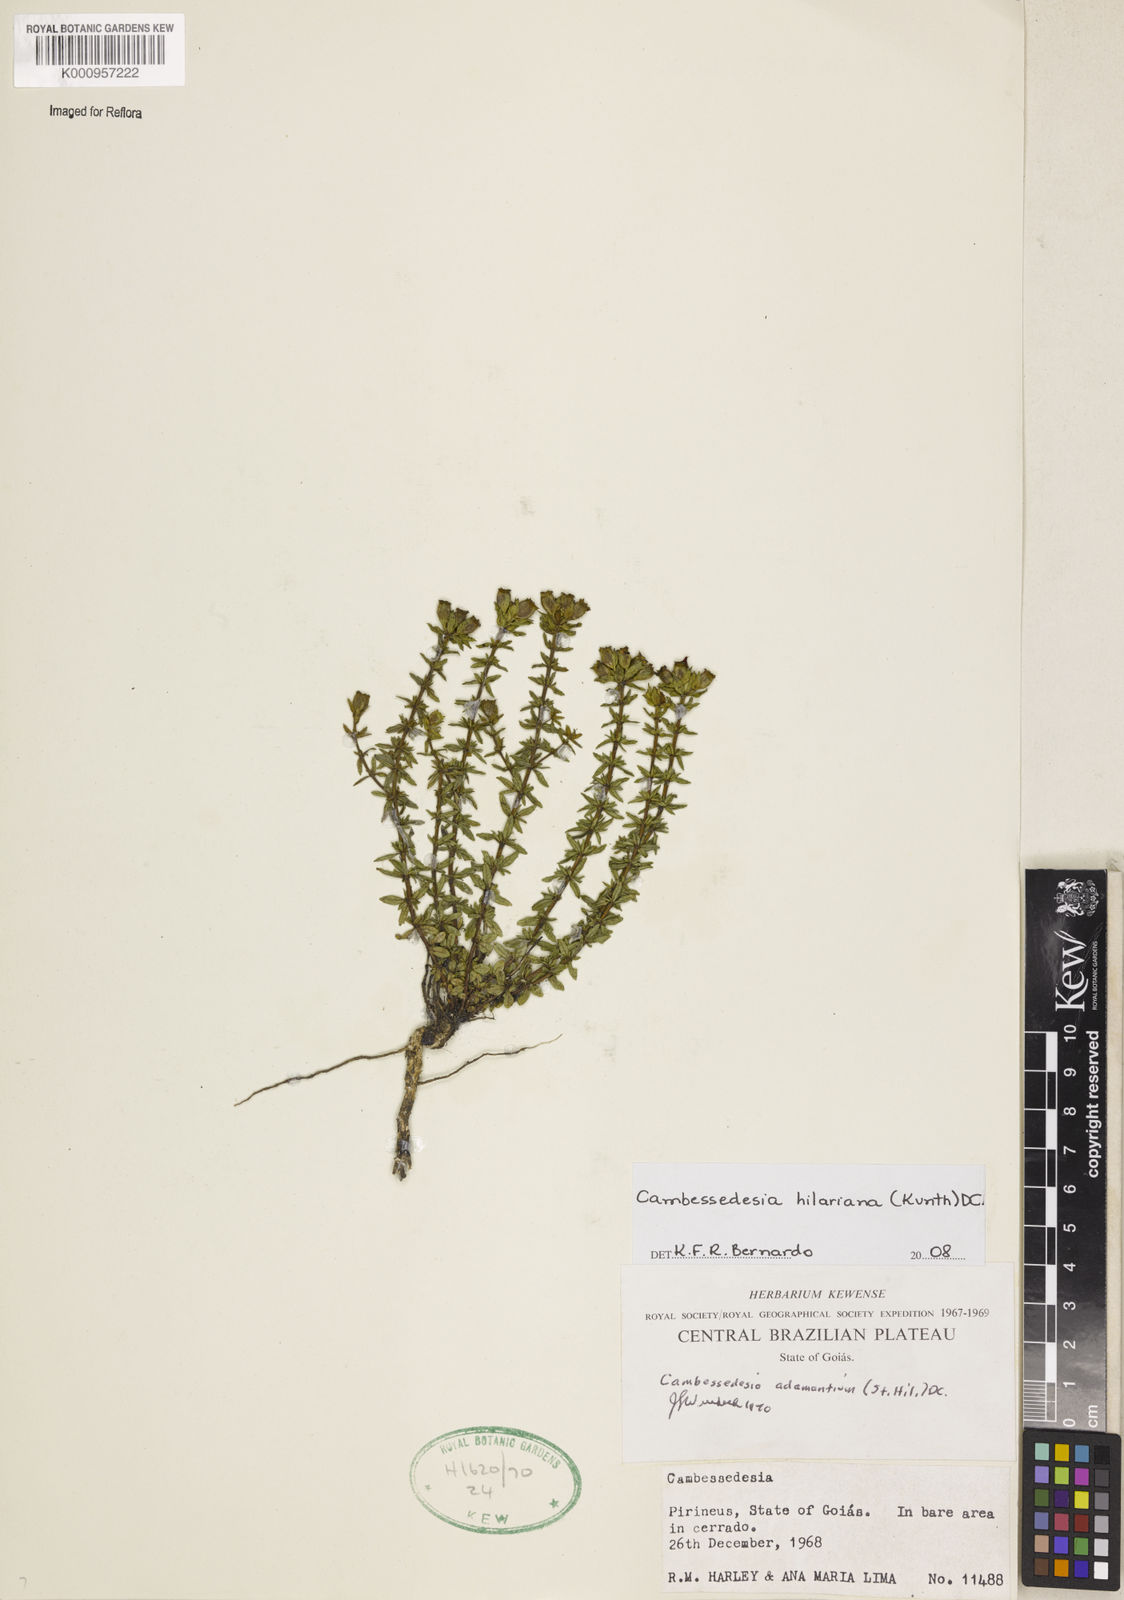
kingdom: Plantae
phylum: Tracheophyta
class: Magnoliopsida
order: Myrtales
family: Melastomataceae
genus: Cambessedesia
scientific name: Cambessedesia hilariana
